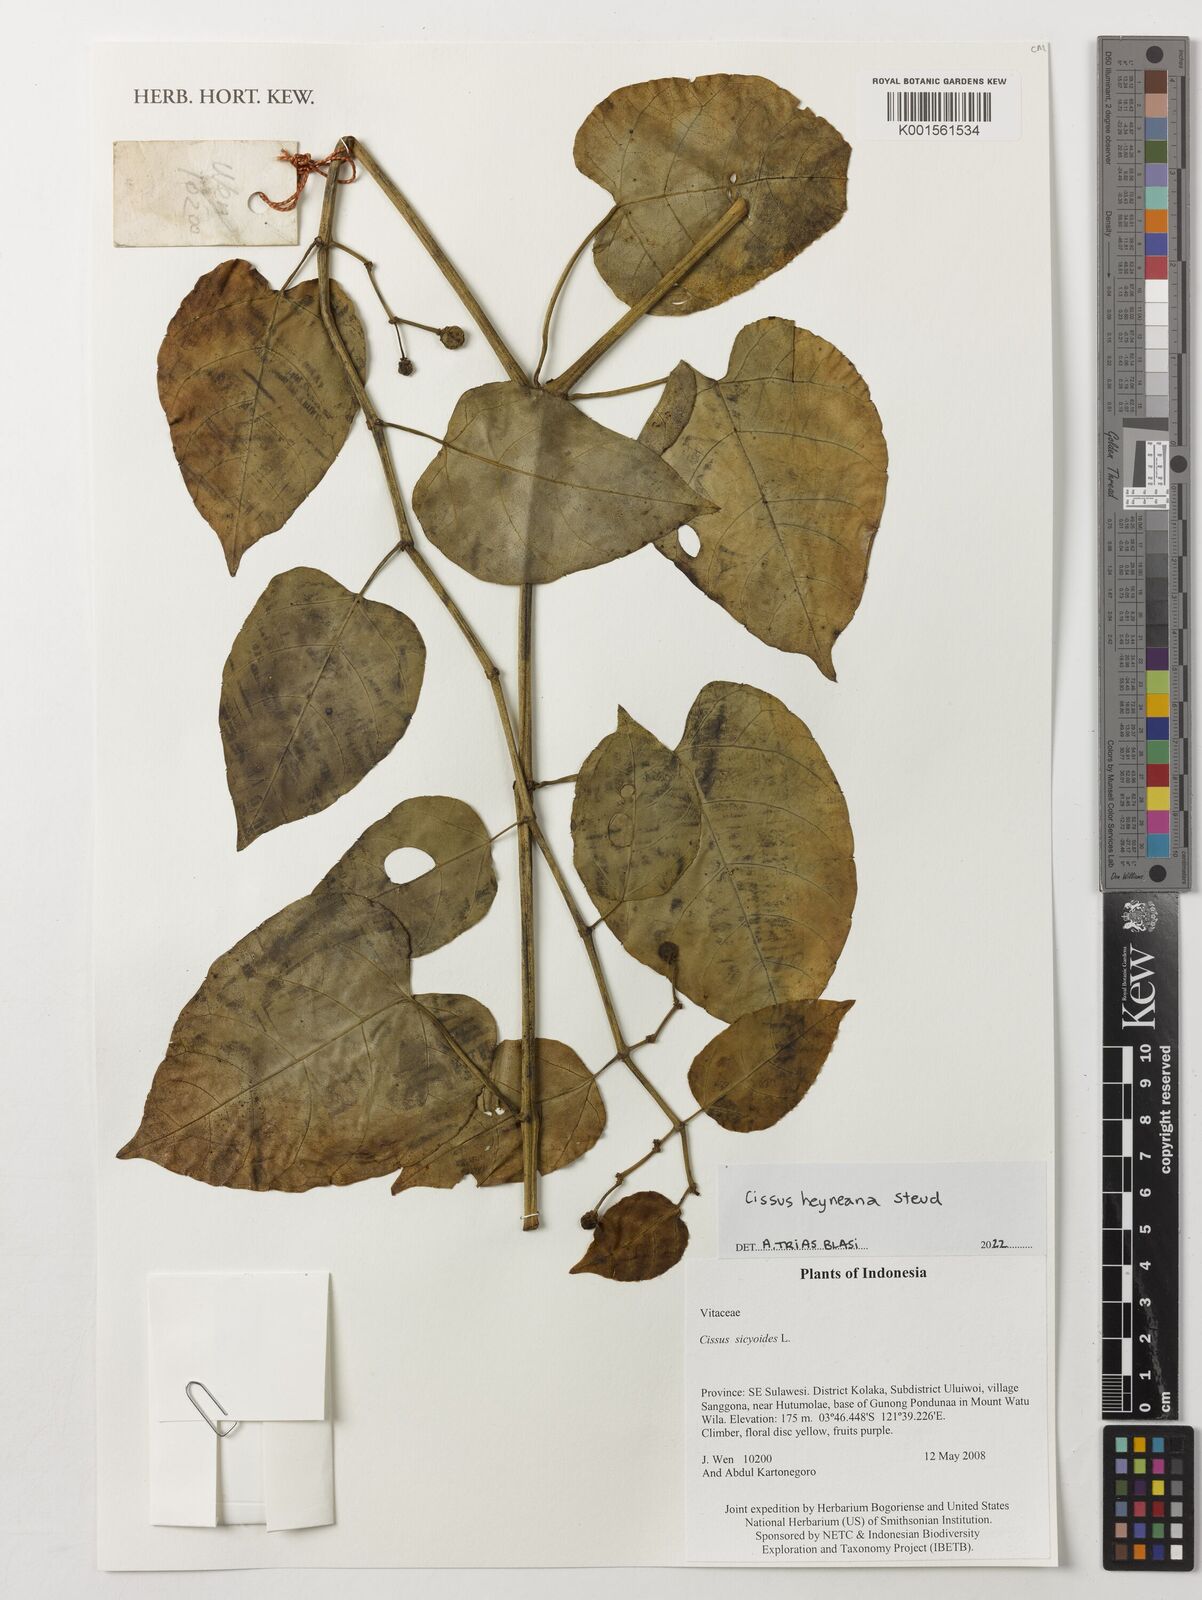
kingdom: Plantae
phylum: Tracheophyta
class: Magnoliopsida
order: Vitales
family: Vitaceae
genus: Cissus
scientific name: Cissus heyneana
